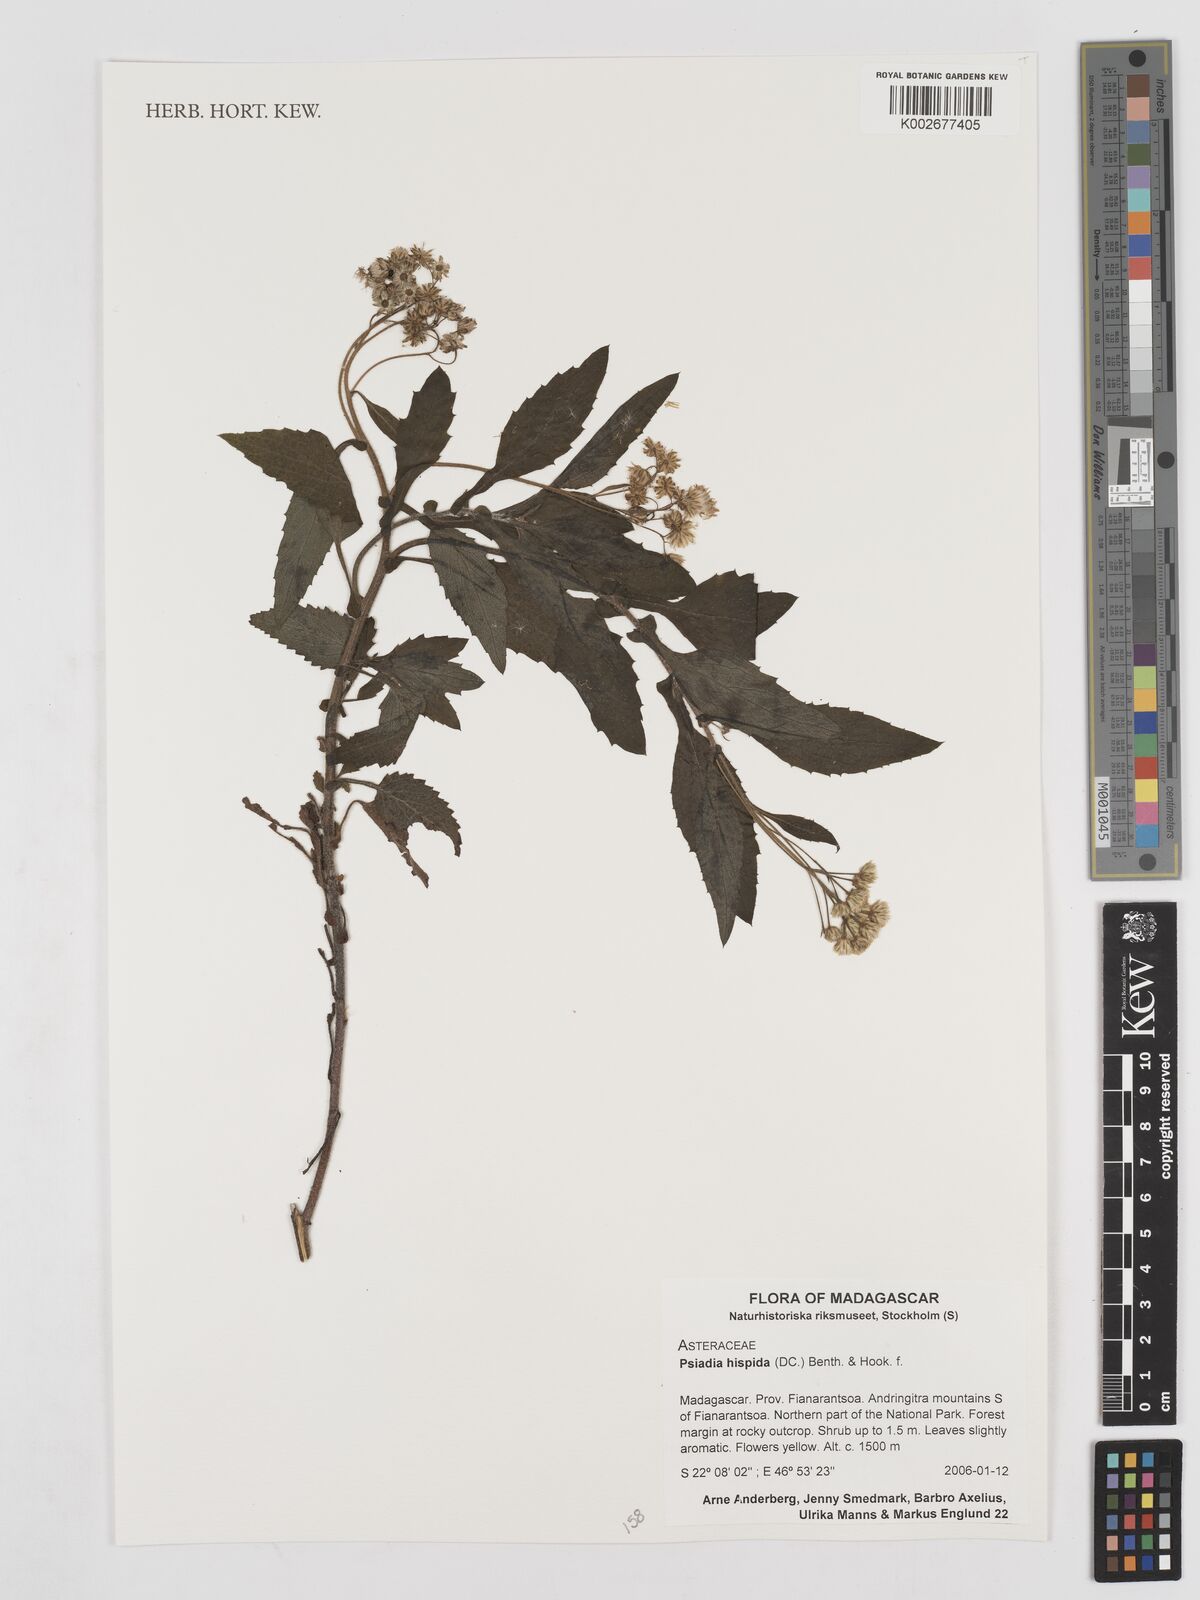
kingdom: Plantae
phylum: Tracheophyta
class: Magnoliopsida
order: Asterales
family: Asteraceae
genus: Psiadia
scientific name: Psiadia hispida
